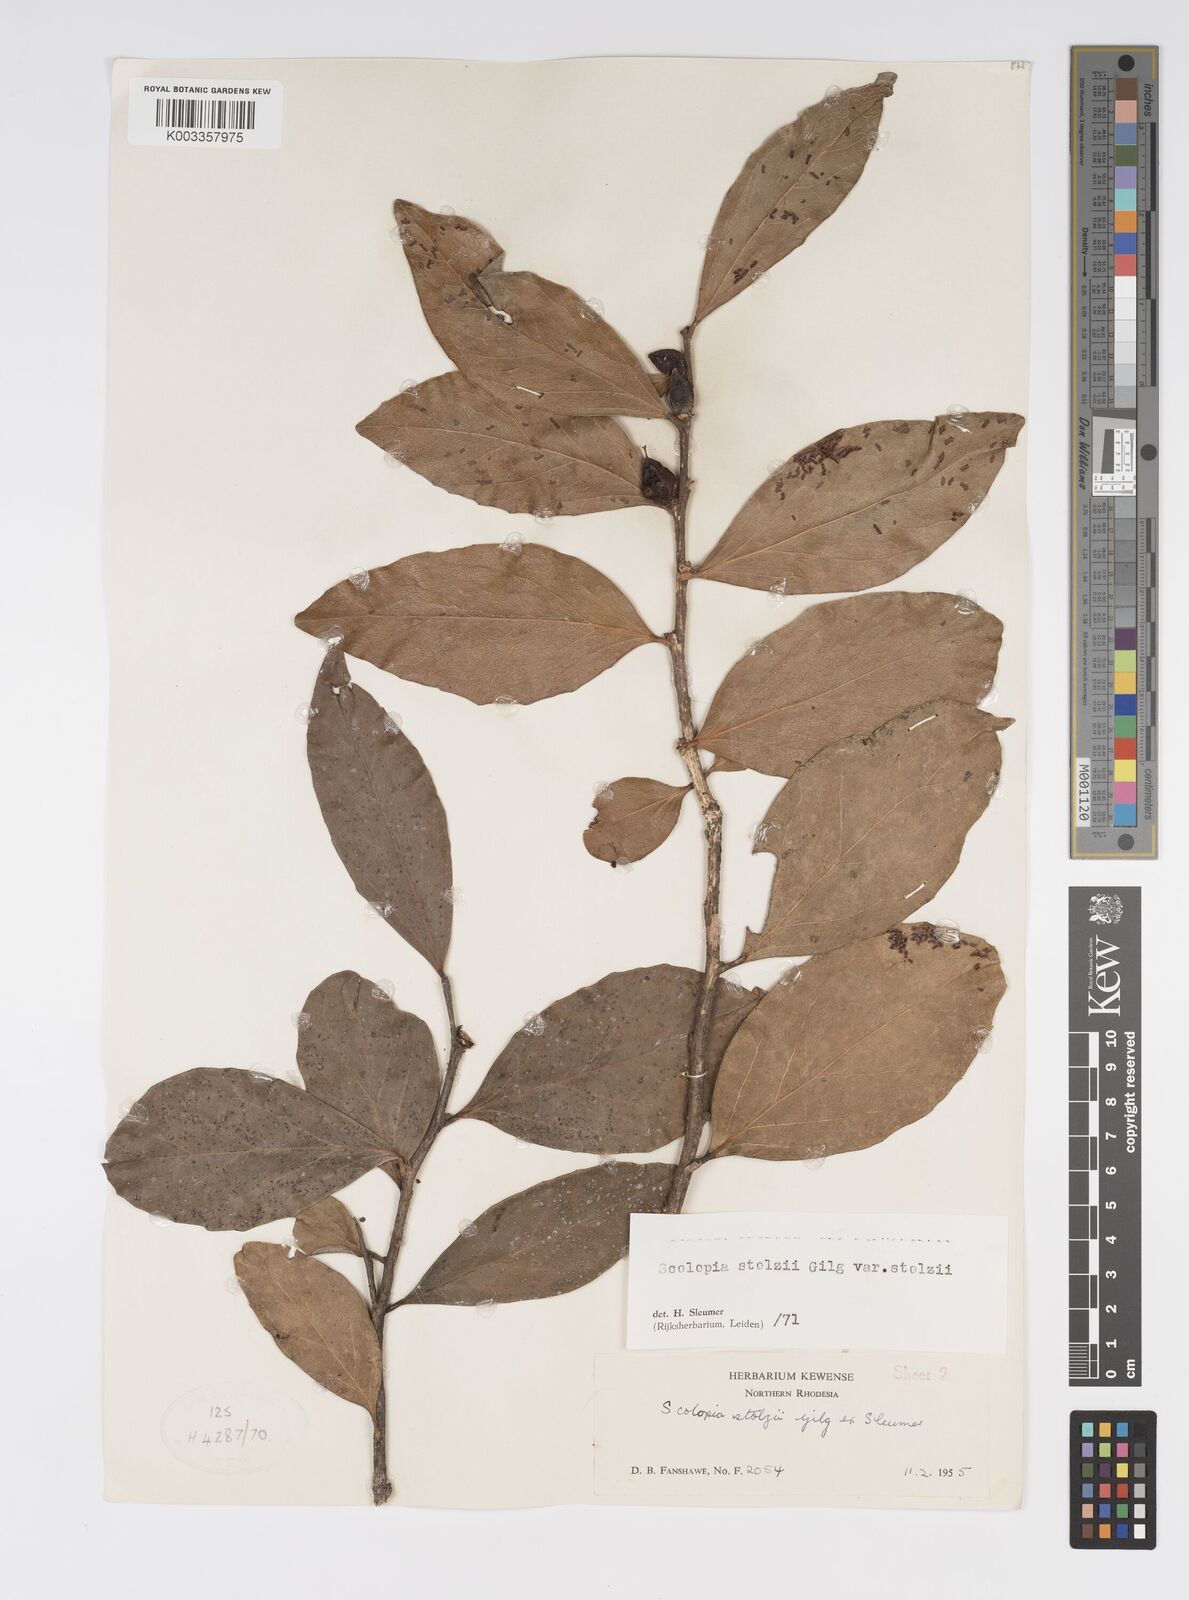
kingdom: Plantae
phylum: Tracheophyta
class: Magnoliopsida
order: Malpighiales
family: Salicaceae
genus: Scolopia
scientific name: Scolopia stolzii
